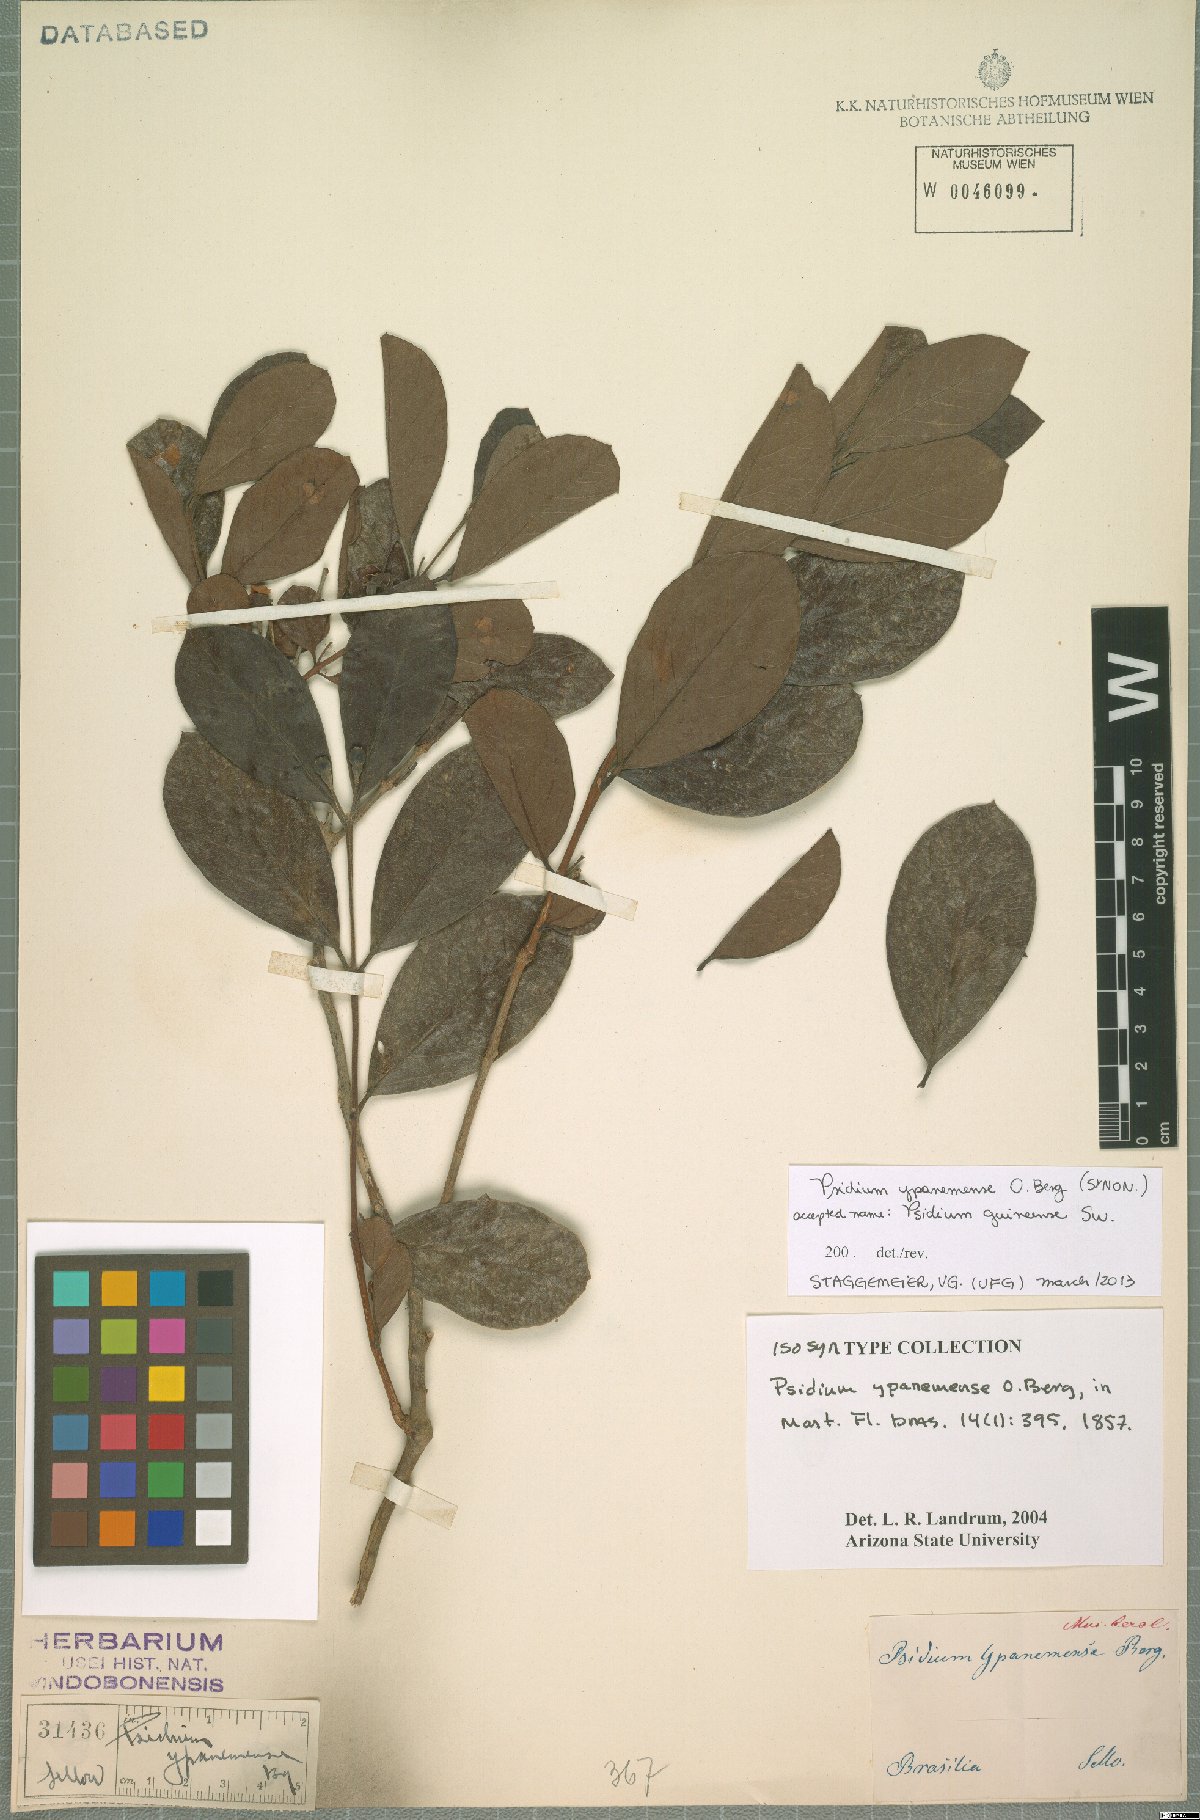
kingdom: Plantae
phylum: Tracheophyta
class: Magnoliopsida
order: Myrtales
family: Myrtaceae
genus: Psidium
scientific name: Psidium guineense
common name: Brazilian guava
